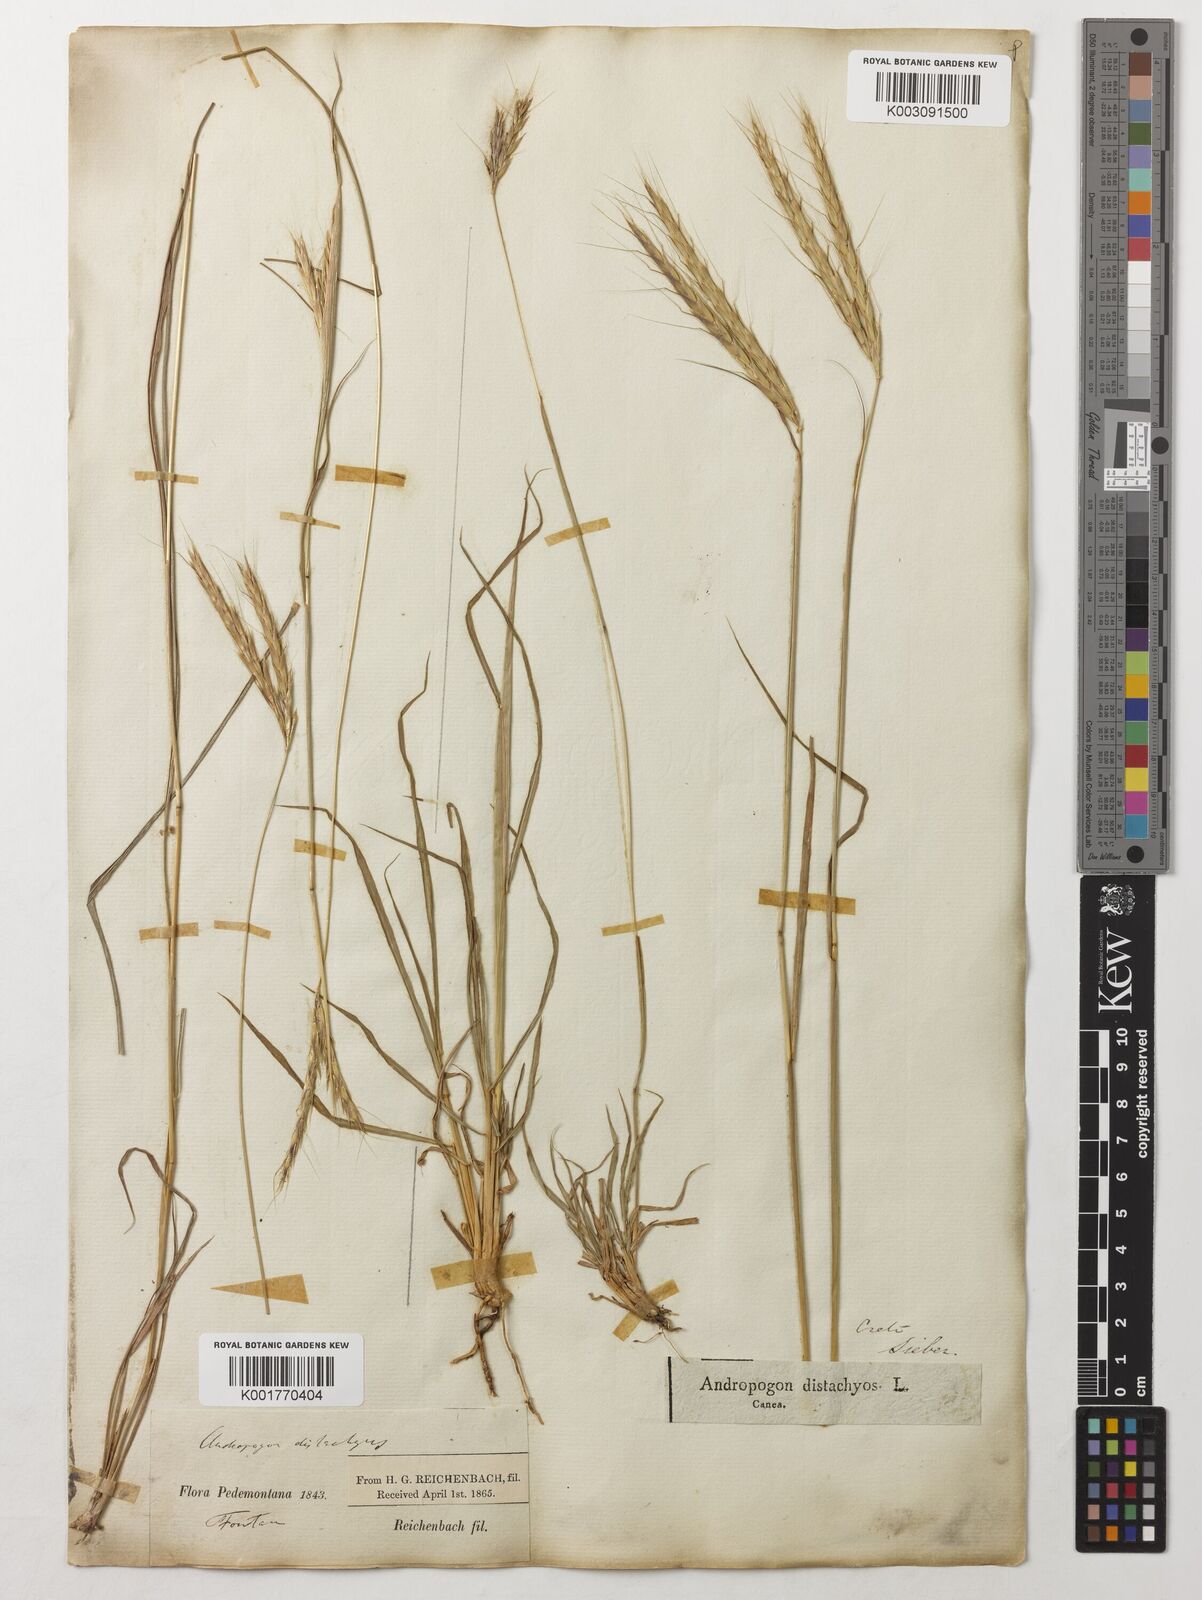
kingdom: Plantae
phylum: Tracheophyta
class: Liliopsida
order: Poales
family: Poaceae
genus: Andropogon
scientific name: Andropogon distachyos
